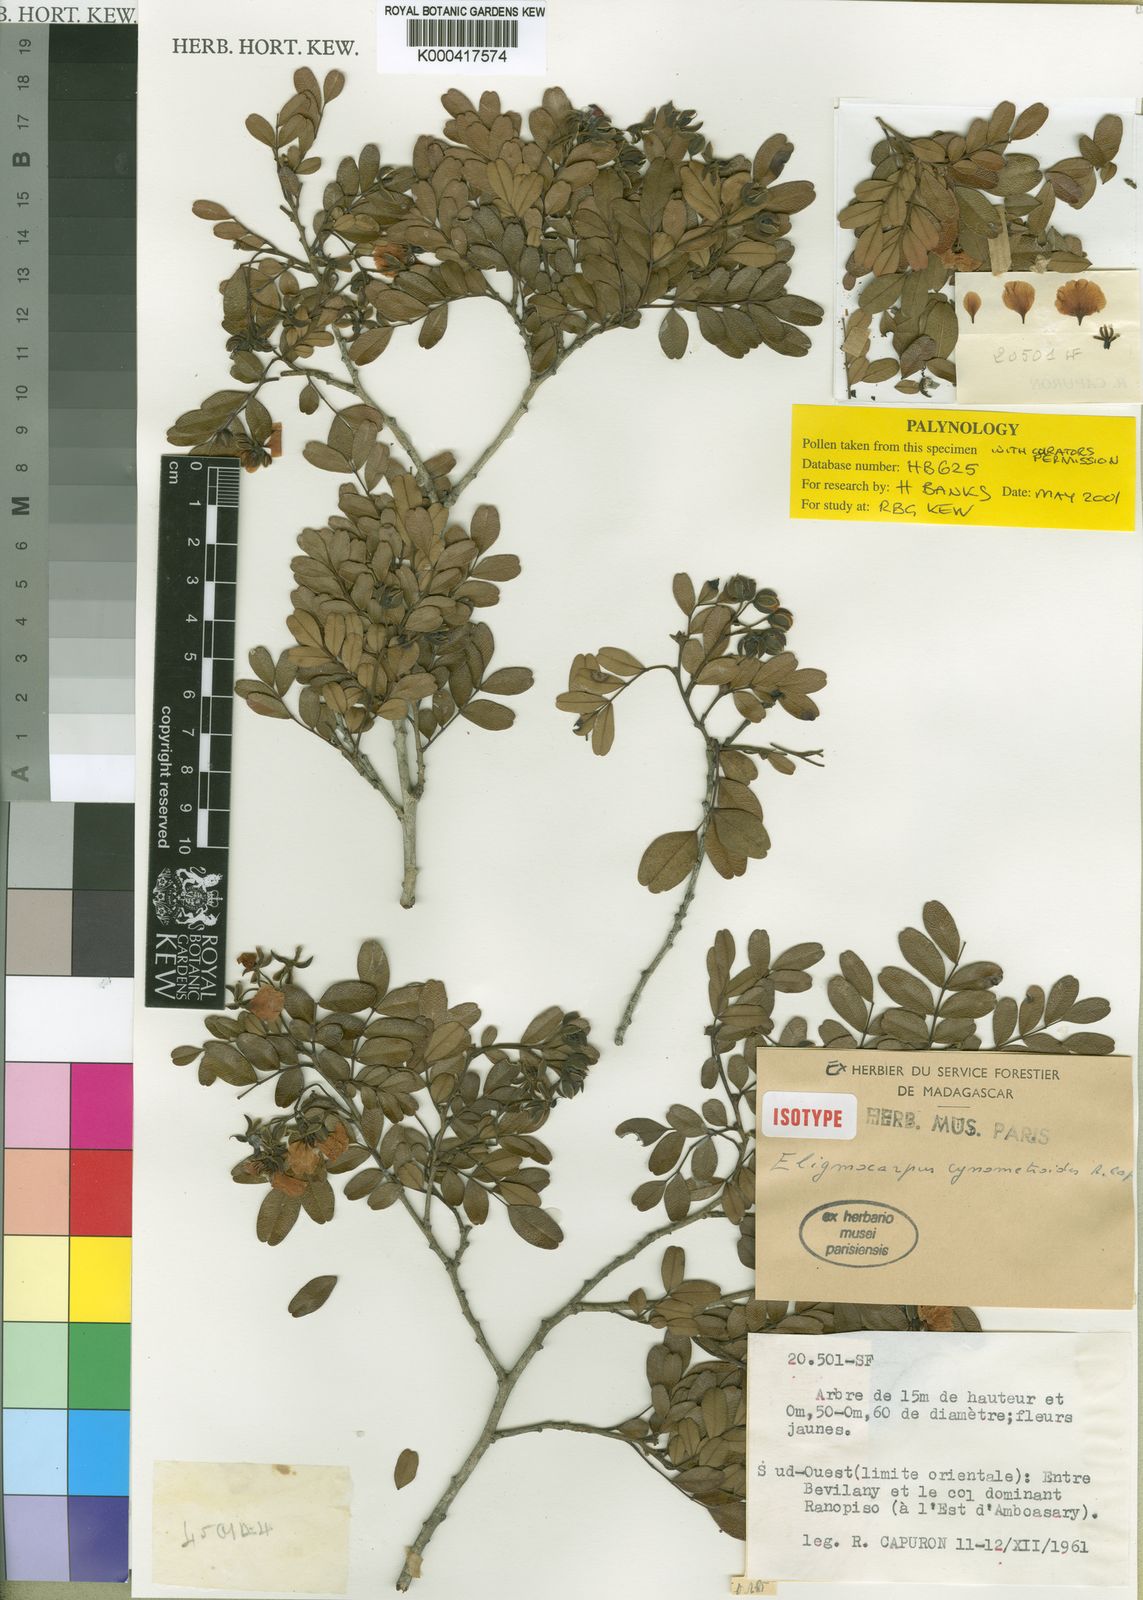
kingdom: Plantae
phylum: Tracheophyta
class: Magnoliopsida
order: Fabales
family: Fabaceae
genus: Eligmocarpus
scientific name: Eligmocarpus cynometroides
